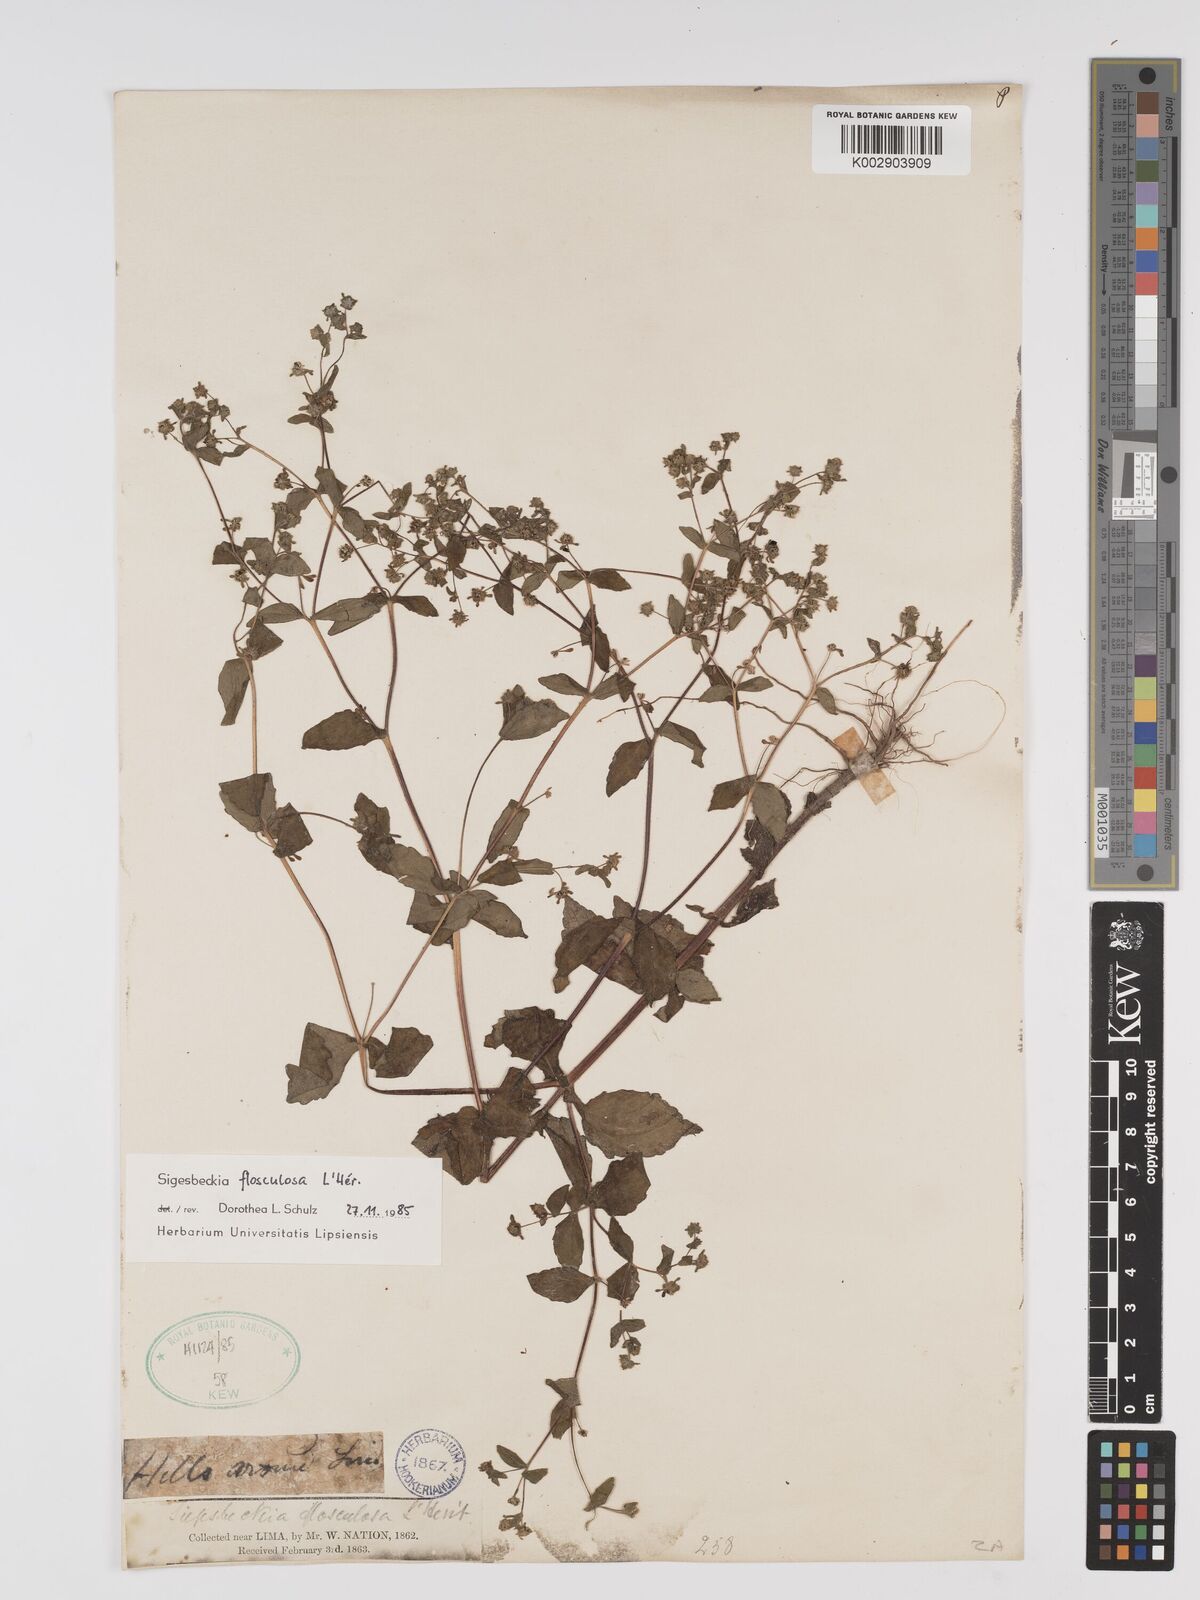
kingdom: Plantae
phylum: Tracheophyta
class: Magnoliopsida
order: Asterales
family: Asteraceae
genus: Sigesbeckia
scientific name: Sigesbeckia flosculosa
